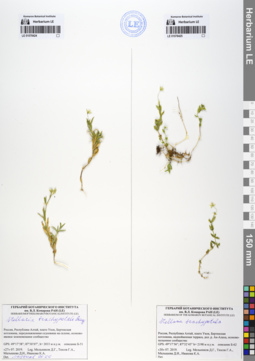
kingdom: Plantae
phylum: Tracheophyta
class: Magnoliopsida
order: Caryophyllales
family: Caryophyllaceae
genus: Stellaria
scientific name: Stellaria brachypetala
